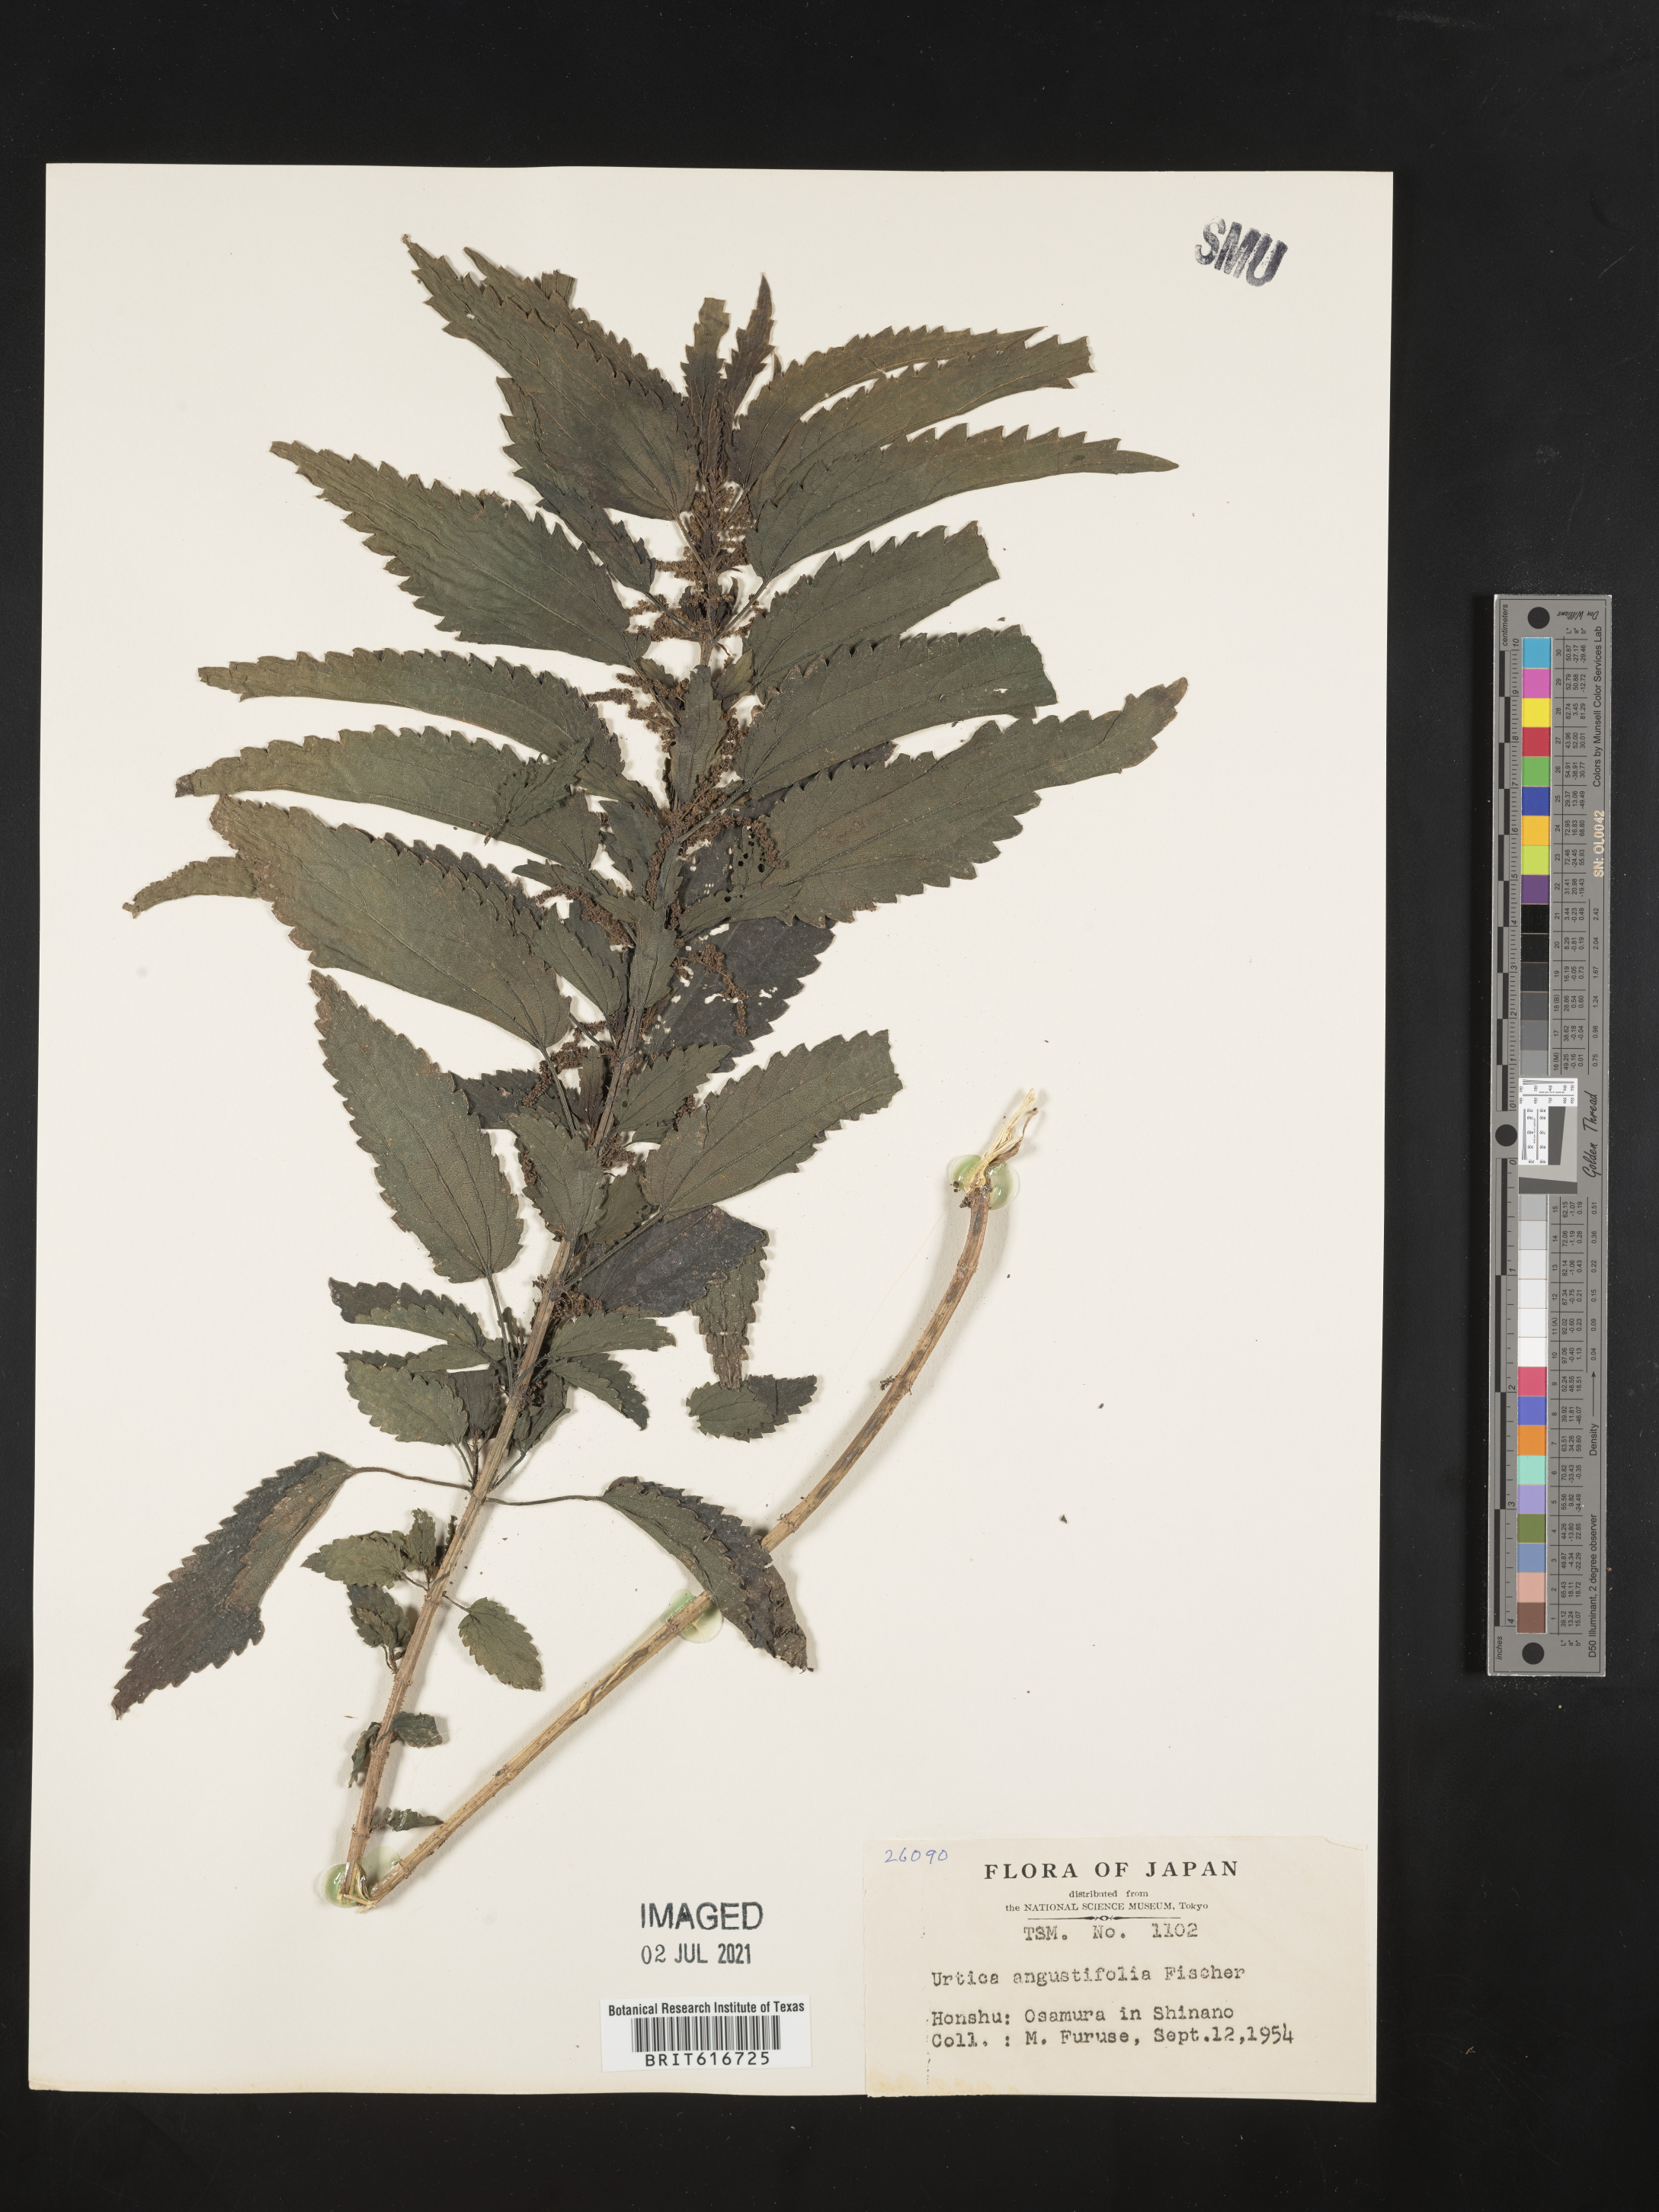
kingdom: Plantae
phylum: Tracheophyta
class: Magnoliopsida
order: Rosales
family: Urticaceae
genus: Urtica
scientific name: Urtica dioica
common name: Common nettle
